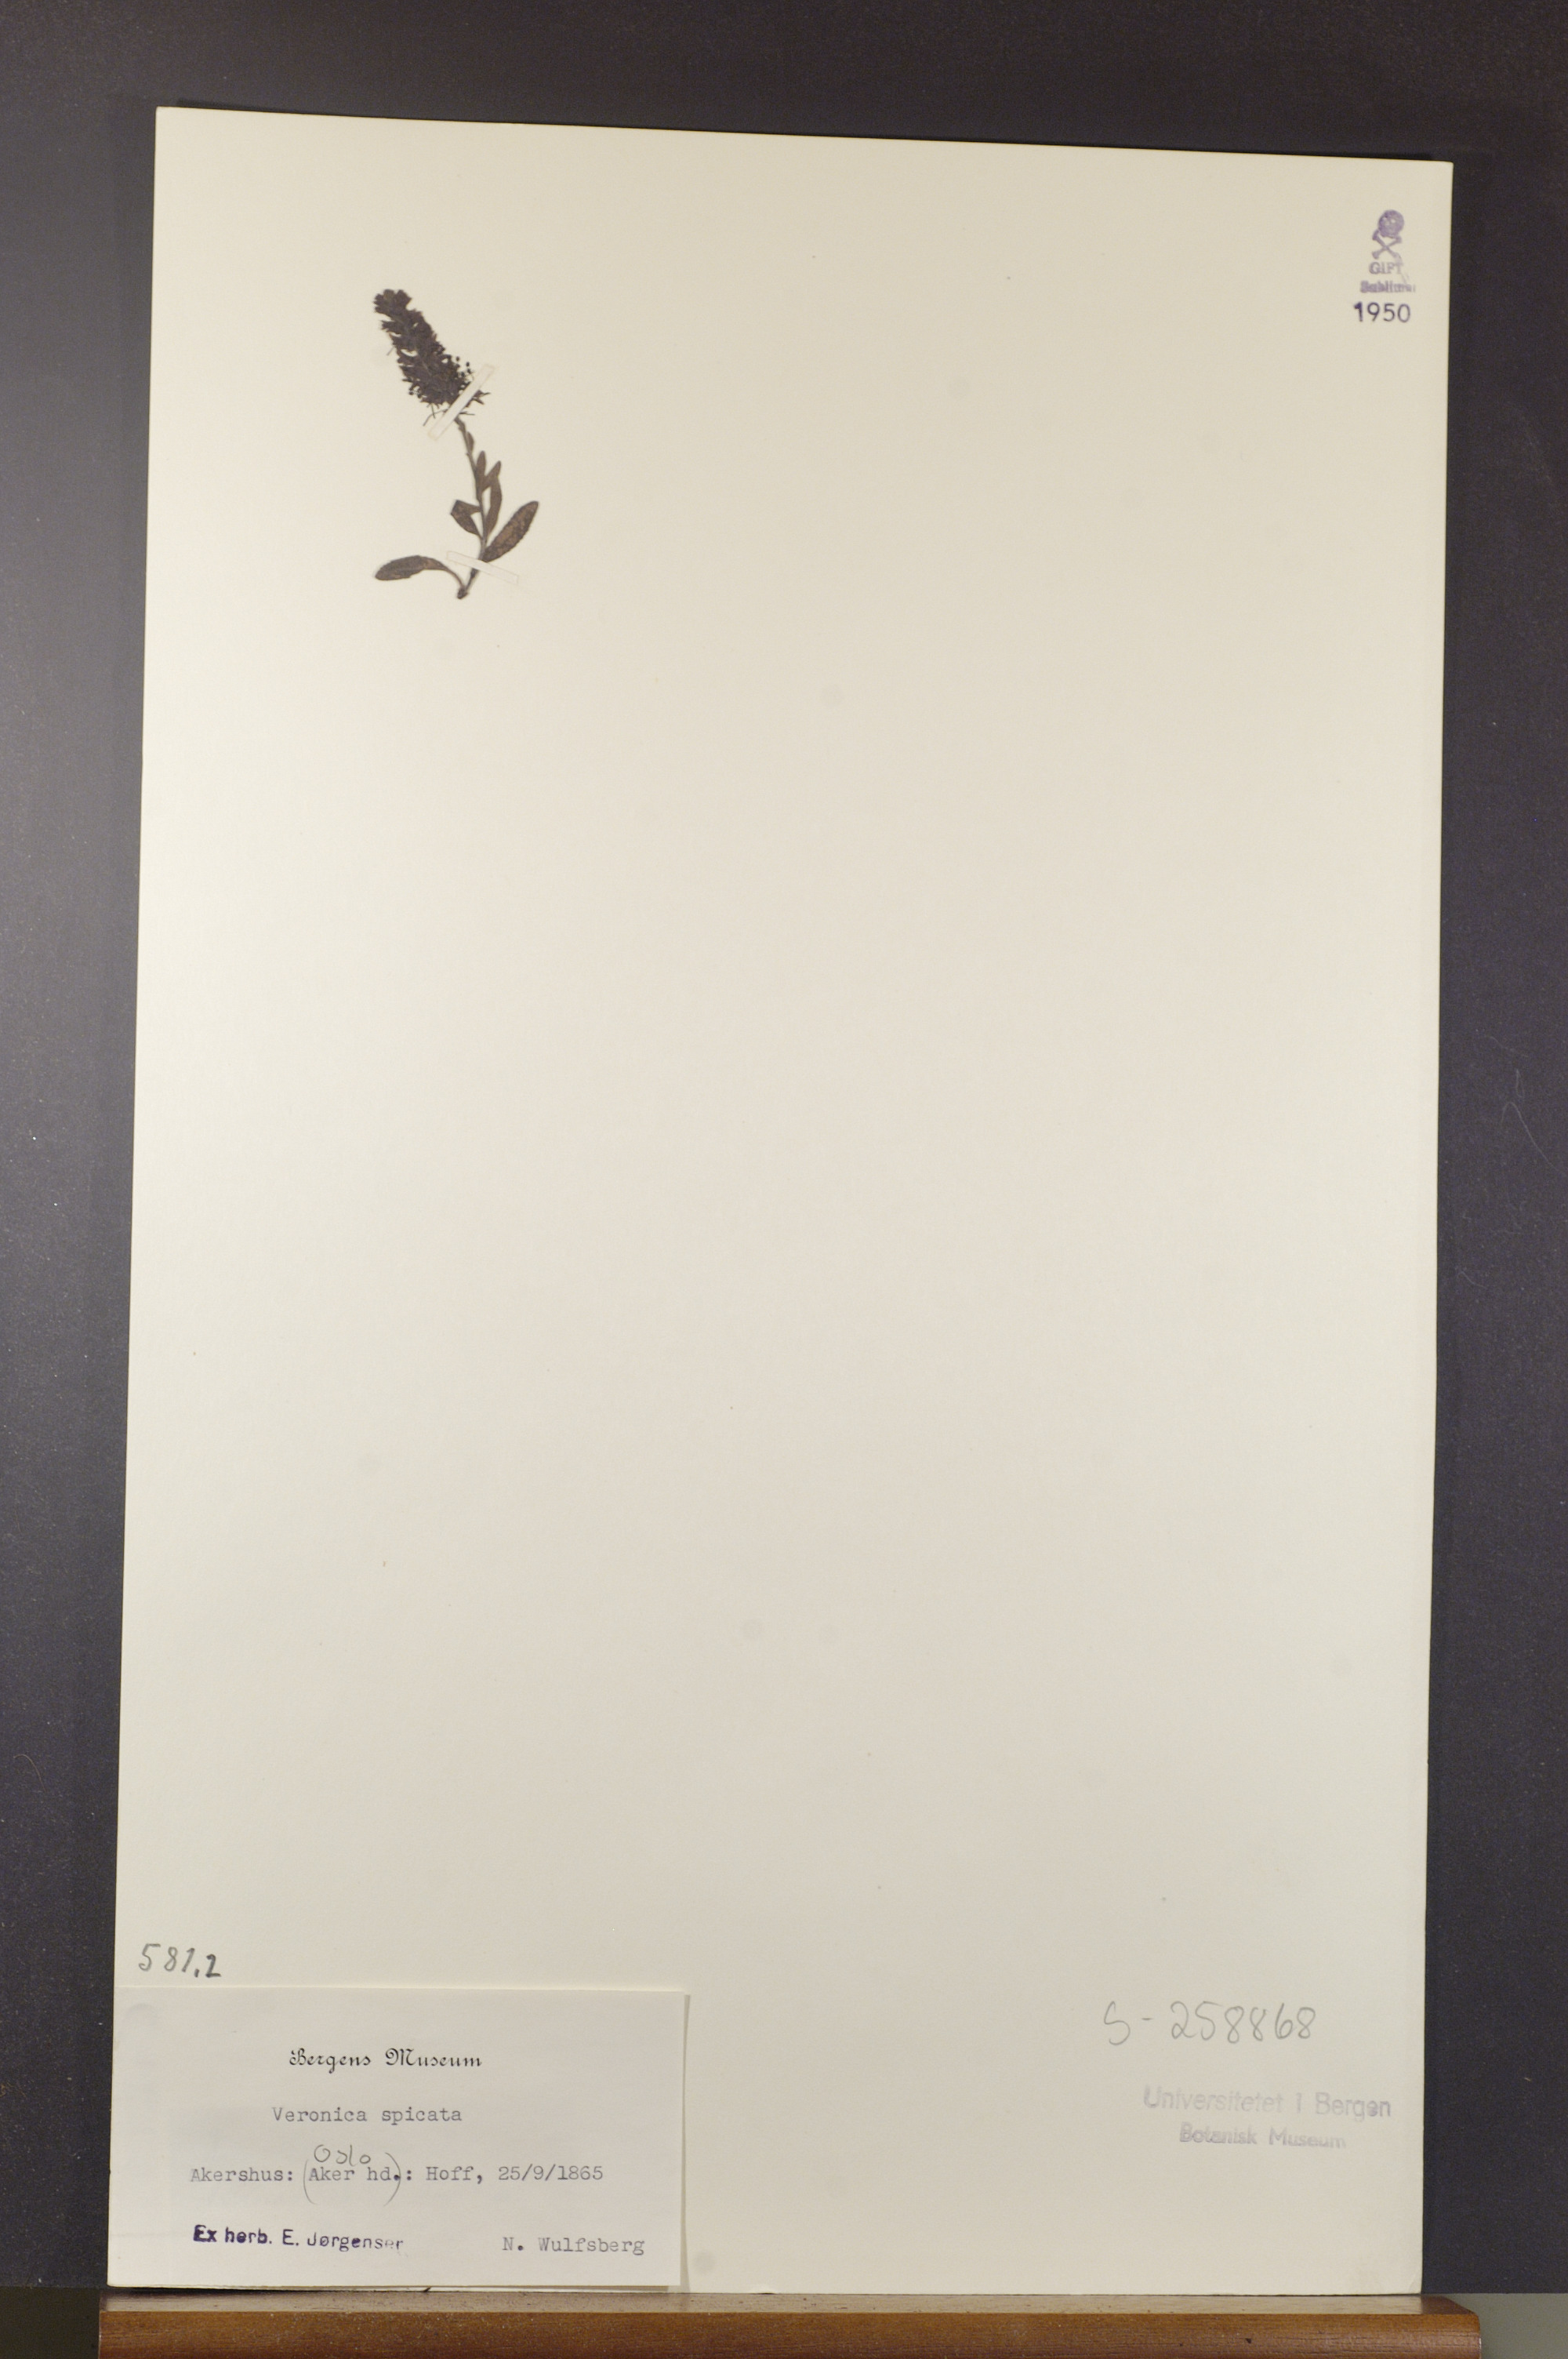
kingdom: Plantae
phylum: Tracheophyta
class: Magnoliopsida
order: Lamiales
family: Plantaginaceae
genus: Veronica
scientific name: Veronica spicata
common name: Spiked speedwell
